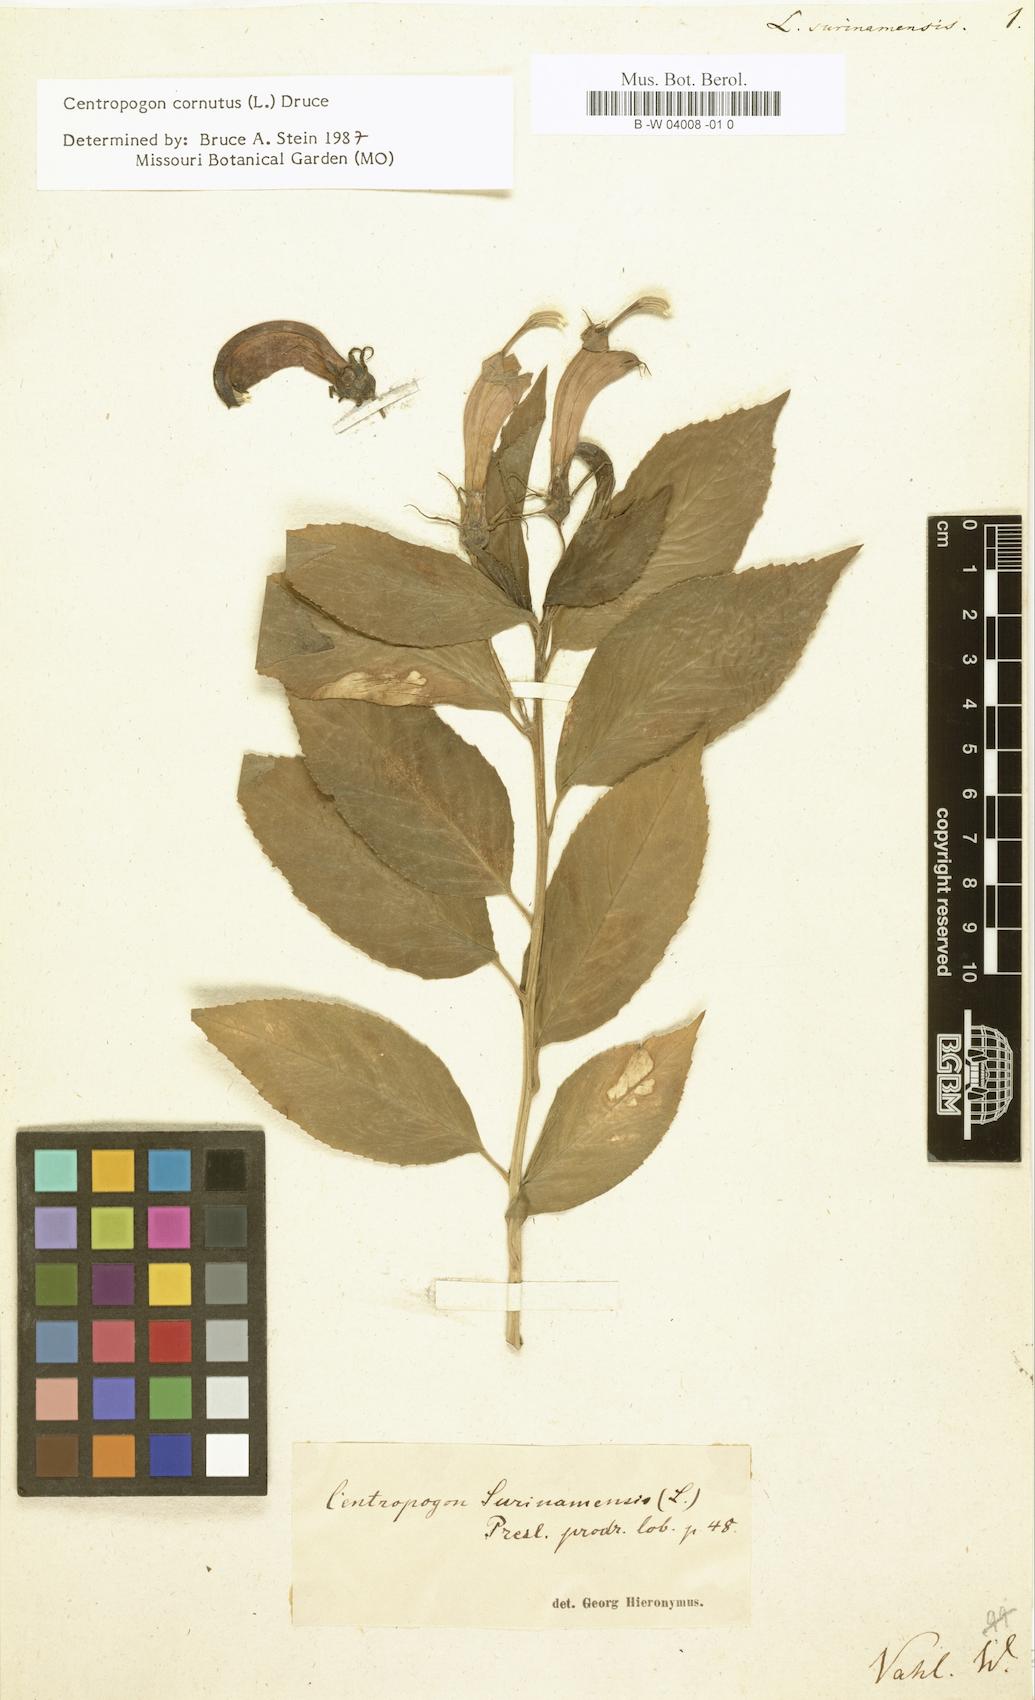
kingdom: Plantae
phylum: Tracheophyta
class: Magnoliopsida
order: Asterales
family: Campanulaceae
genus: Centropogon
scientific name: Centropogon cornutus
